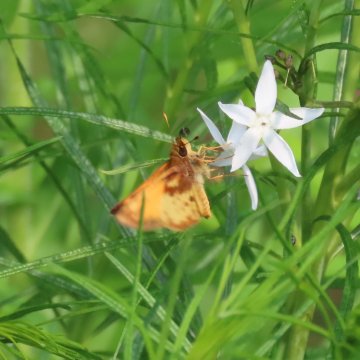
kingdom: Animalia
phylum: Arthropoda
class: Insecta
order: Lepidoptera
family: Hesperiidae
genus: Lon
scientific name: Lon zabulon
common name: Zabulon Skipper
